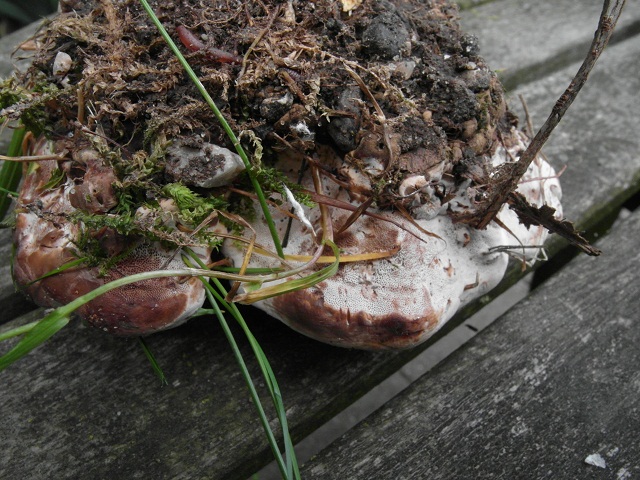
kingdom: Fungi
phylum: Basidiomycota
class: Agaricomycetes
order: Polyporales
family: Podoscyphaceae
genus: Abortiporus
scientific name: Abortiporus biennis
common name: rødmende pjalteporesvamp
